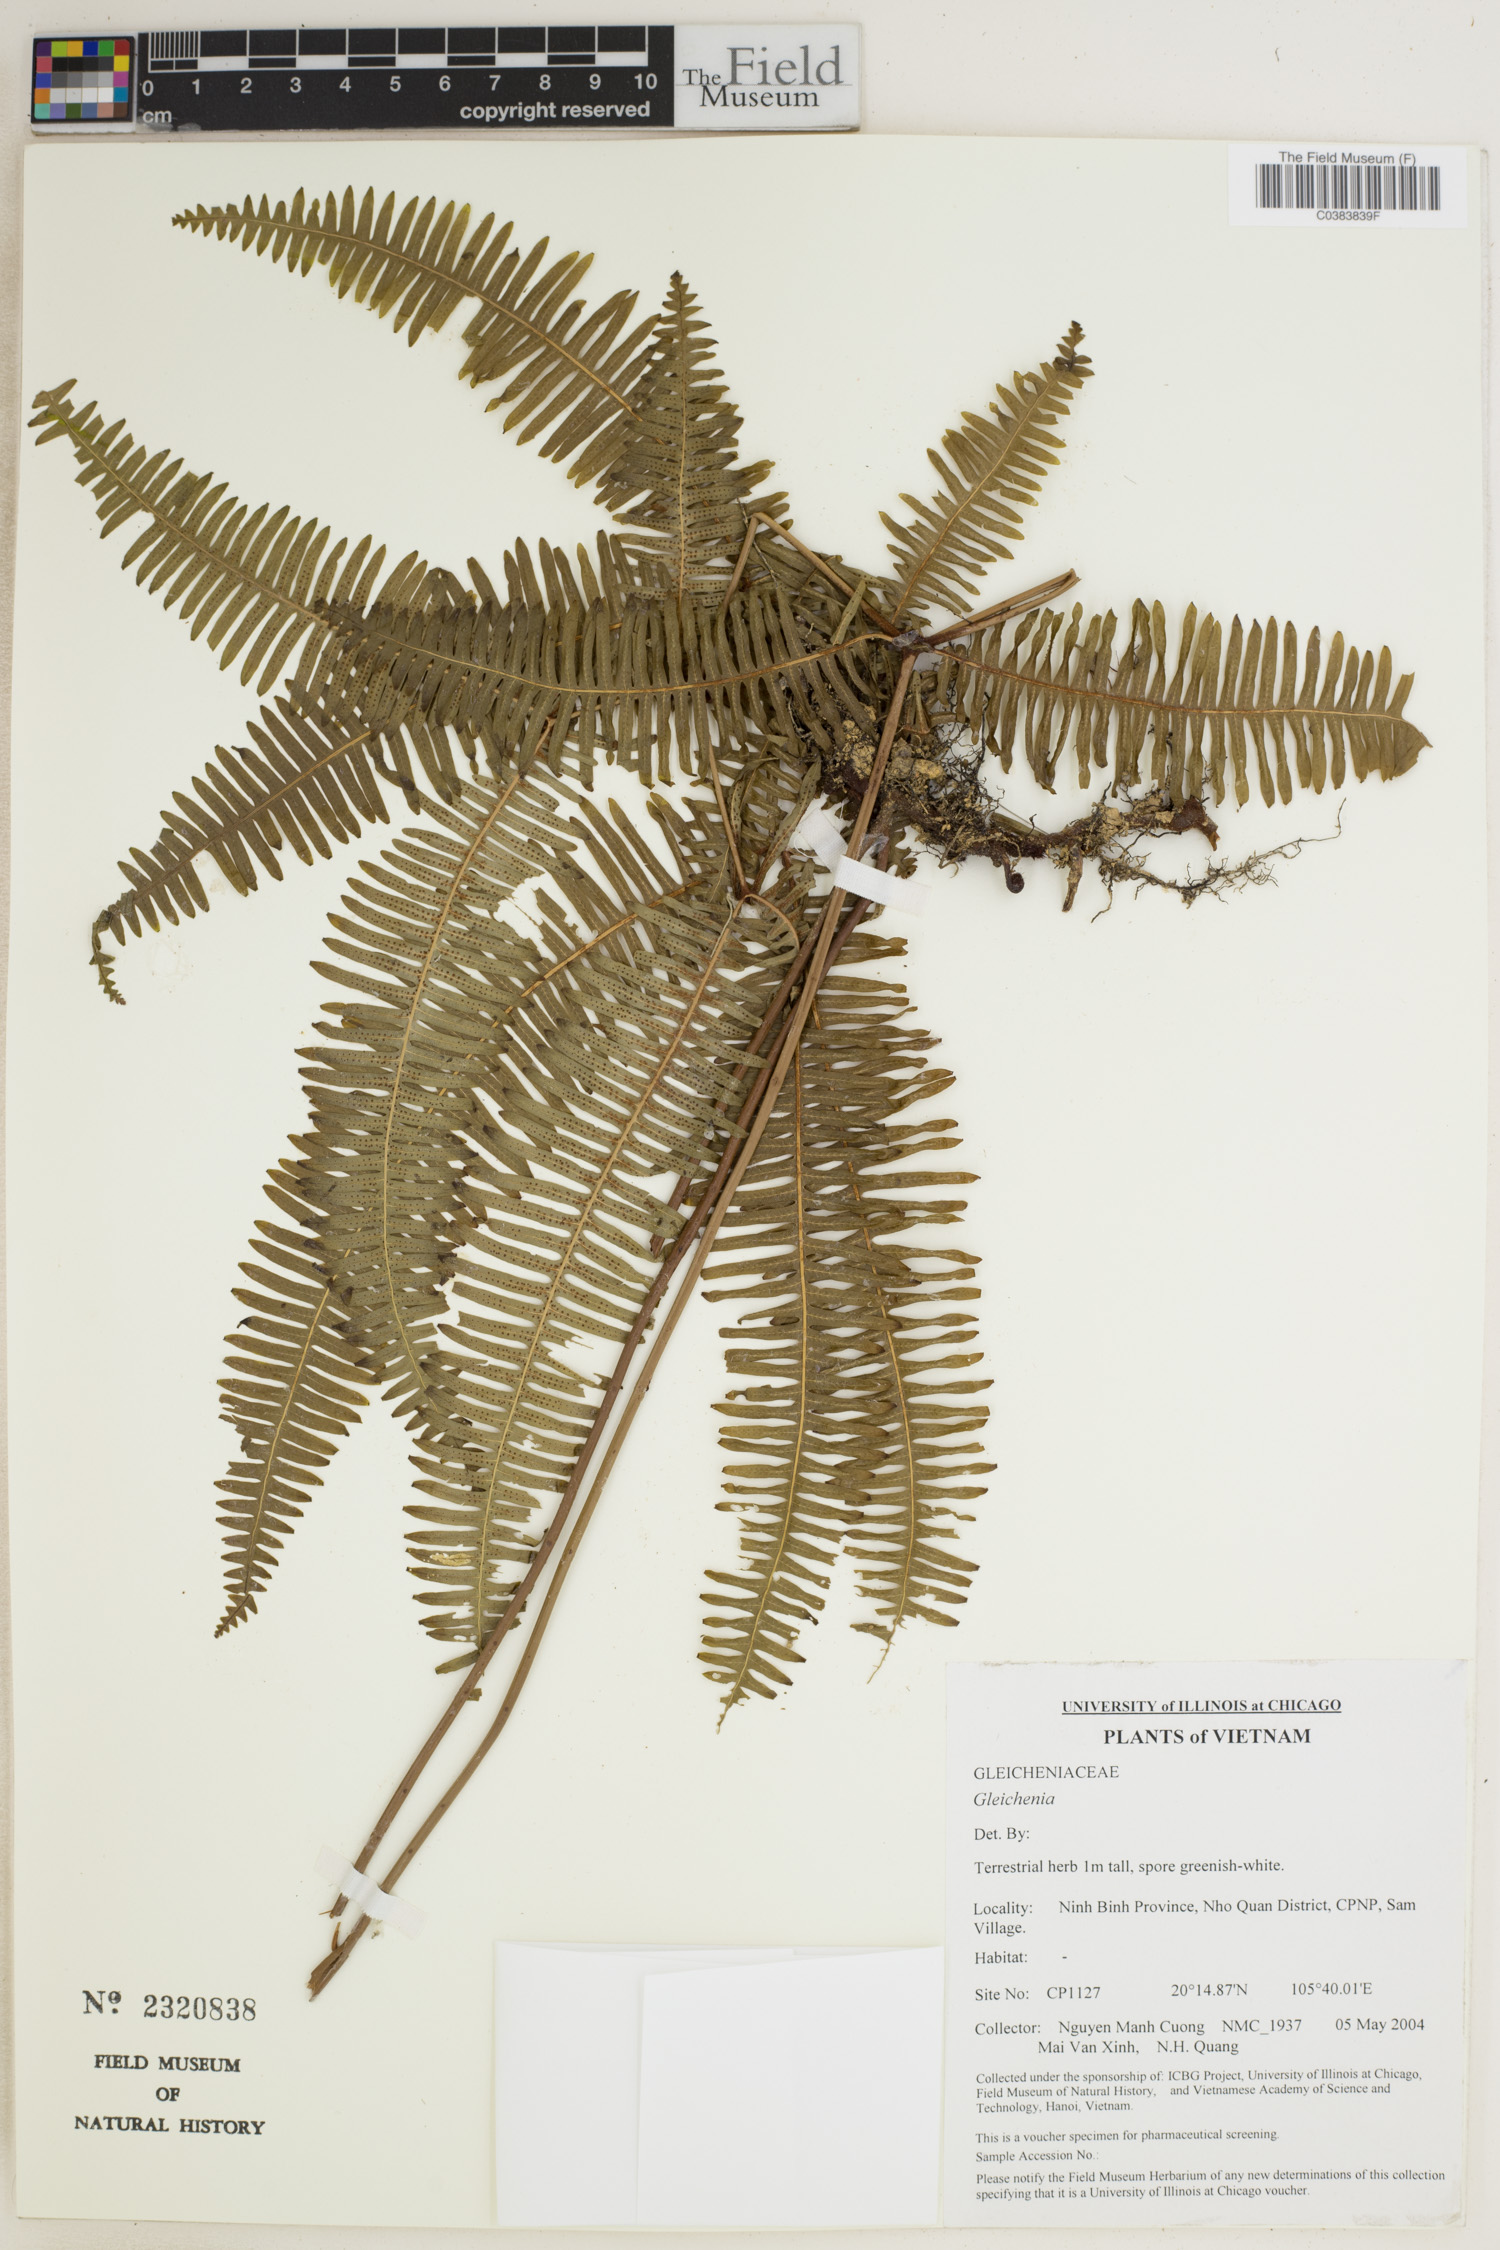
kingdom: Plantae
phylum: Tracheophyta
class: Polypodiopsida
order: Gleicheniales
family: Gleicheniaceae
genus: Gleichenia
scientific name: Gleichenia
